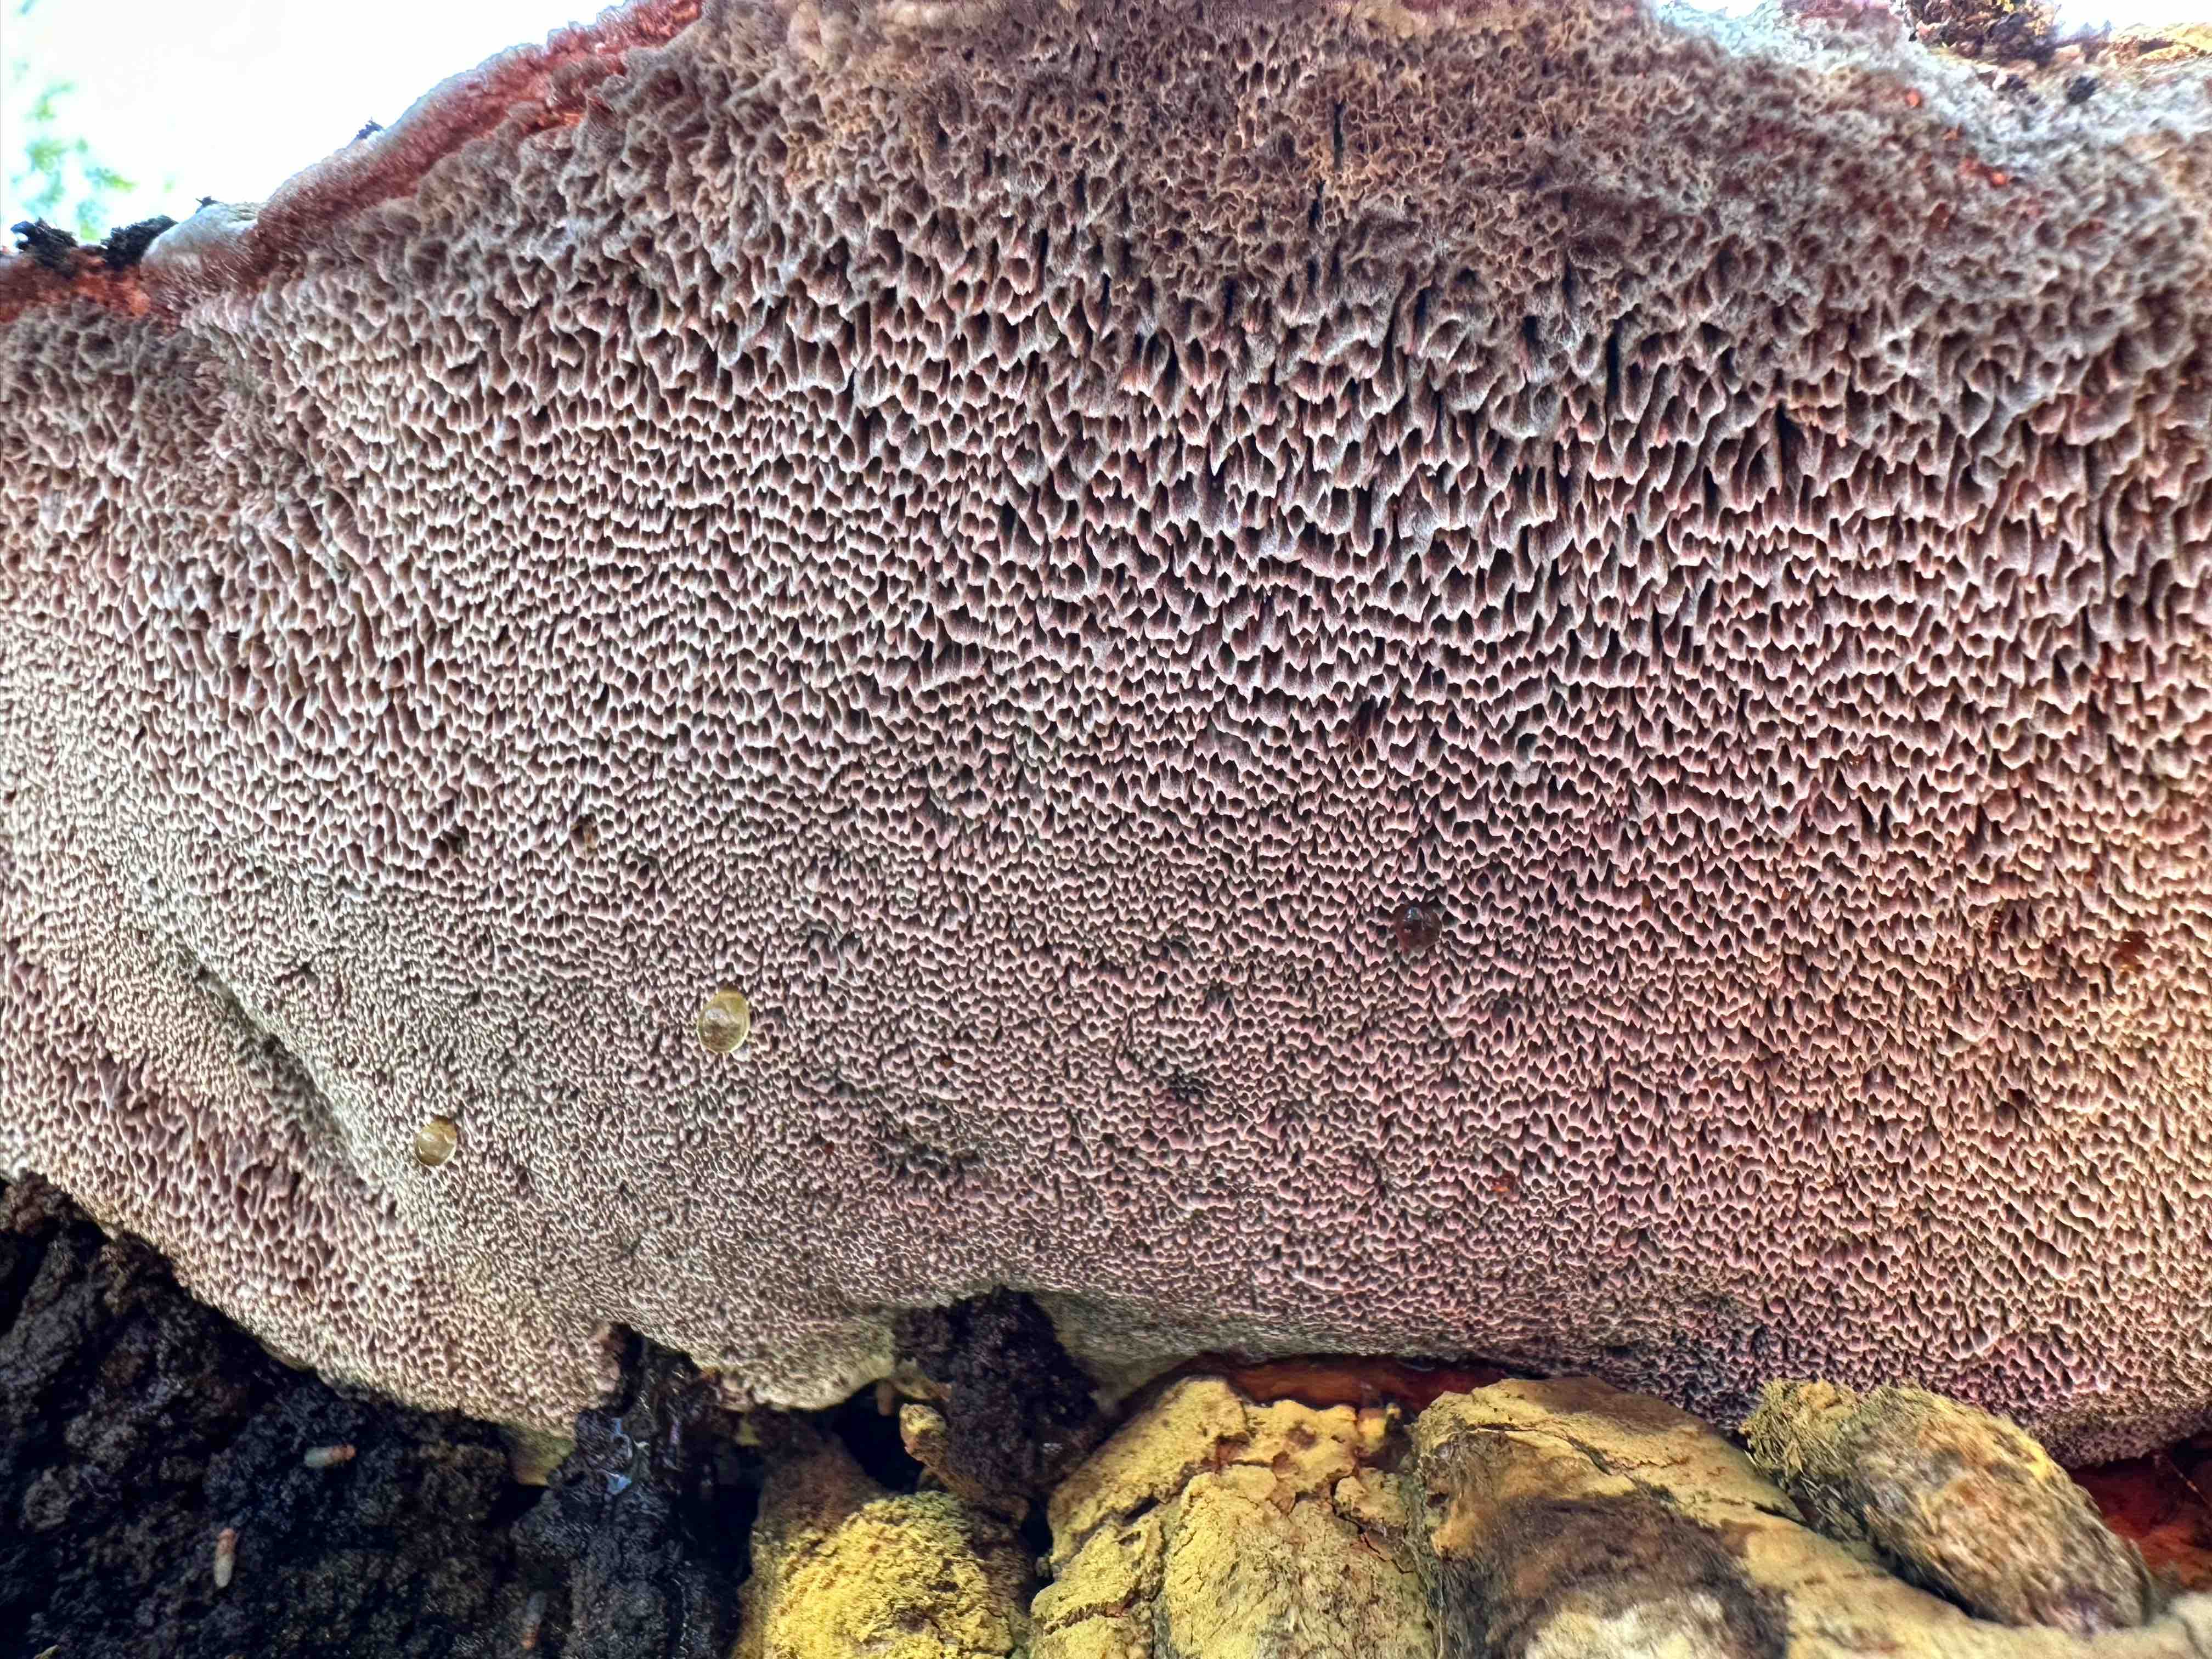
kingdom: Fungi
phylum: Basidiomycota
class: Agaricomycetes
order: Polyporales
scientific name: Polyporales
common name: poresvampordenen
